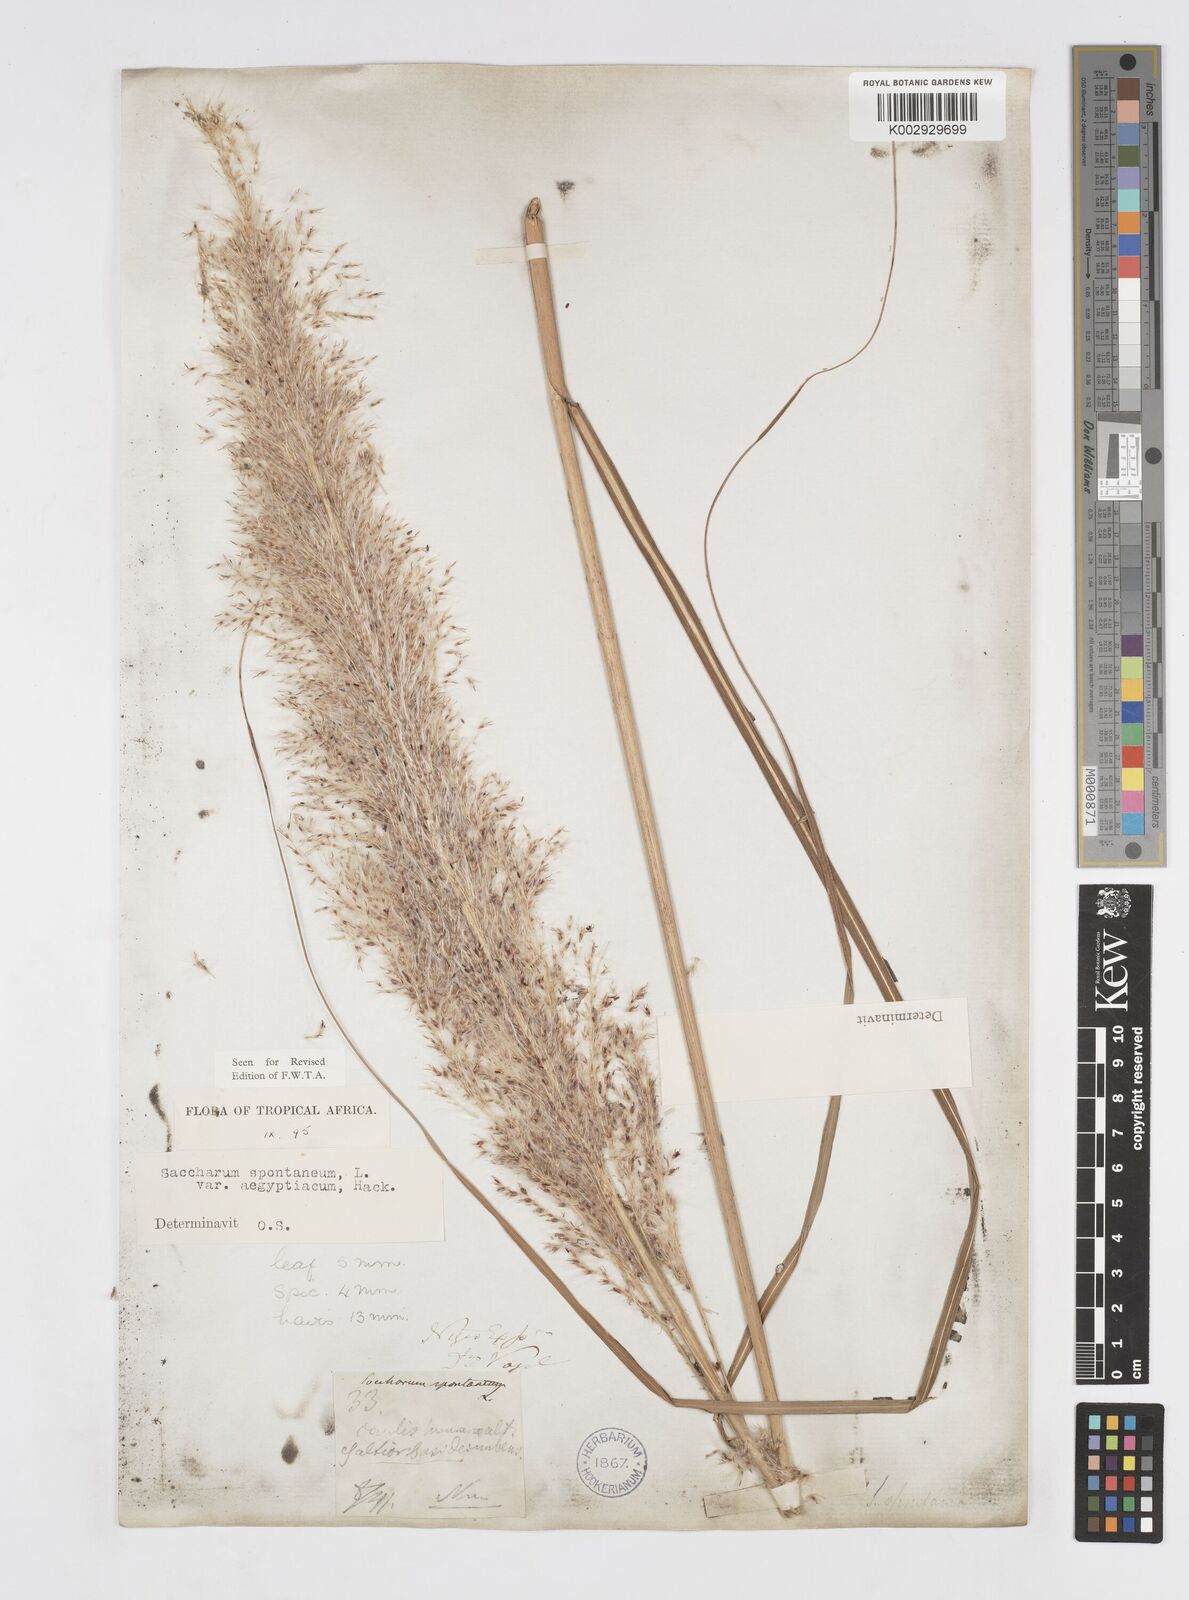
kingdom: Plantae
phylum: Tracheophyta
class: Liliopsida
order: Poales
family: Poaceae
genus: Saccharum
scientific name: Saccharum spontaneum
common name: Wild sugarcane
